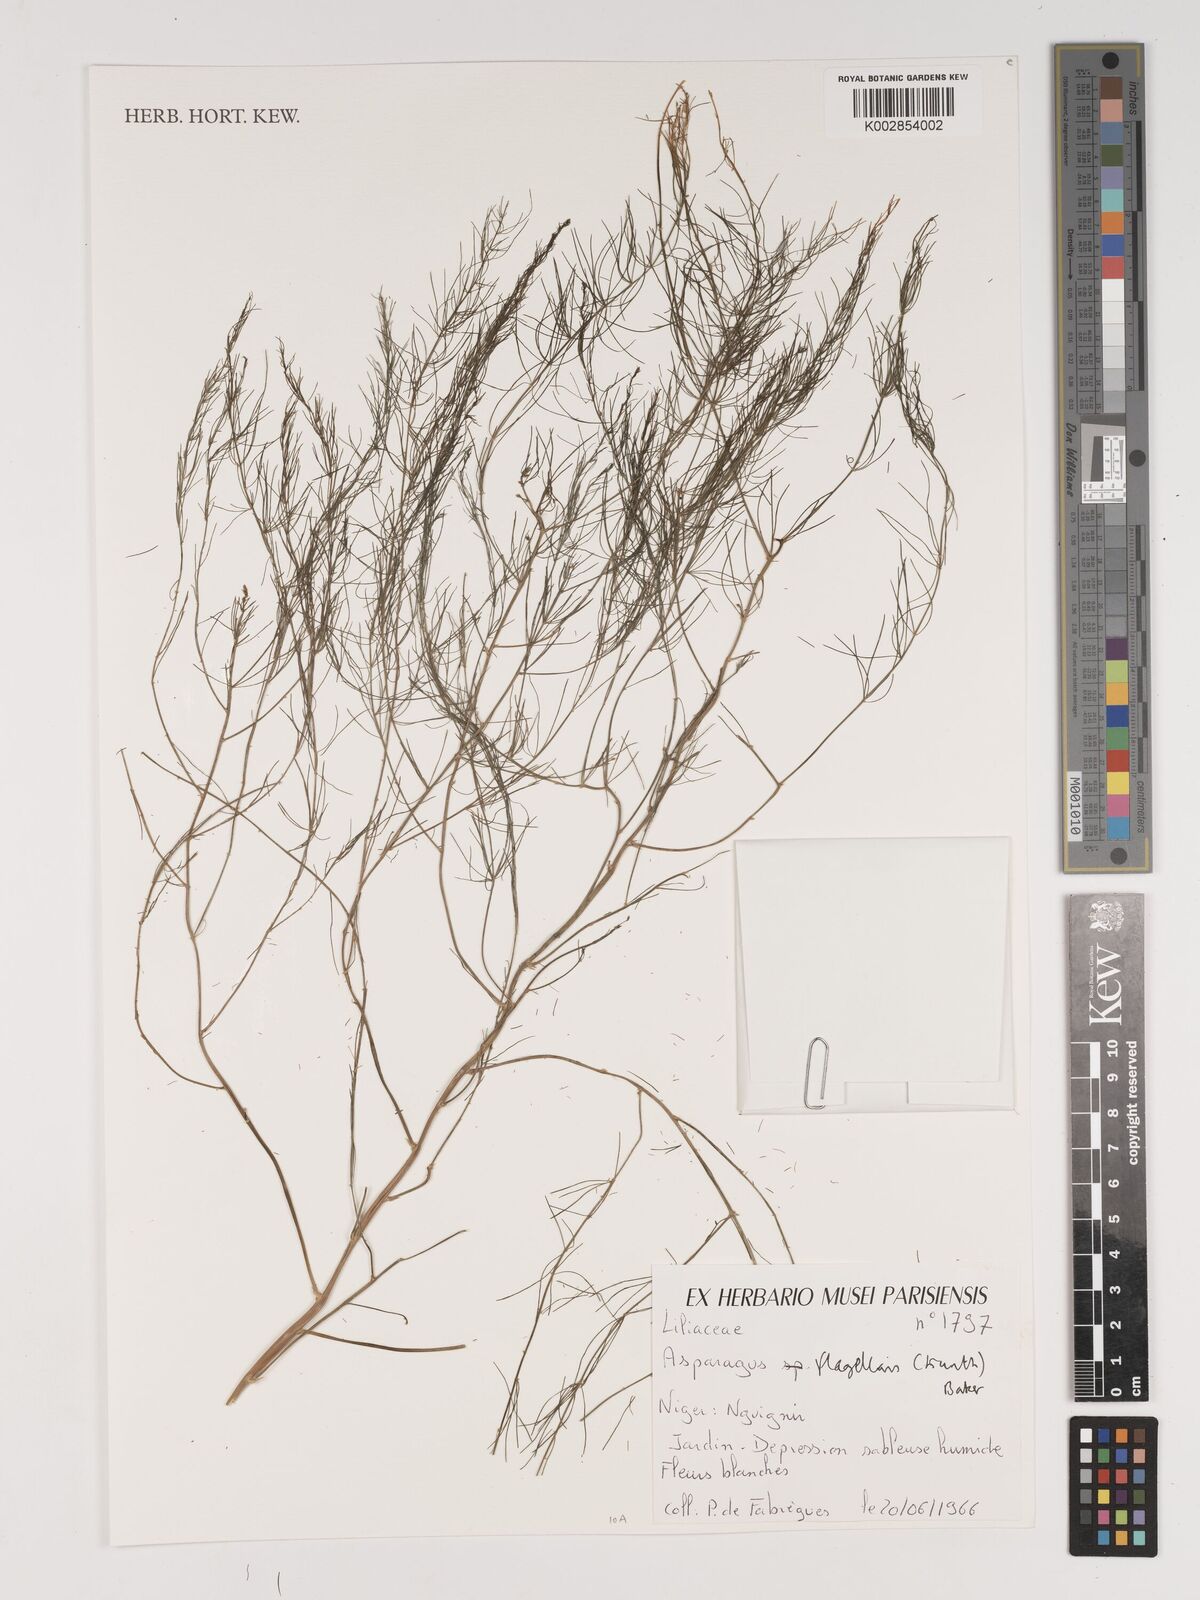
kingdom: Plantae
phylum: Tracheophyta
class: Liliopsida
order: Asparagales
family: Asparagaceae
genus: Asparagus
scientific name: Asparagus flagellaris
